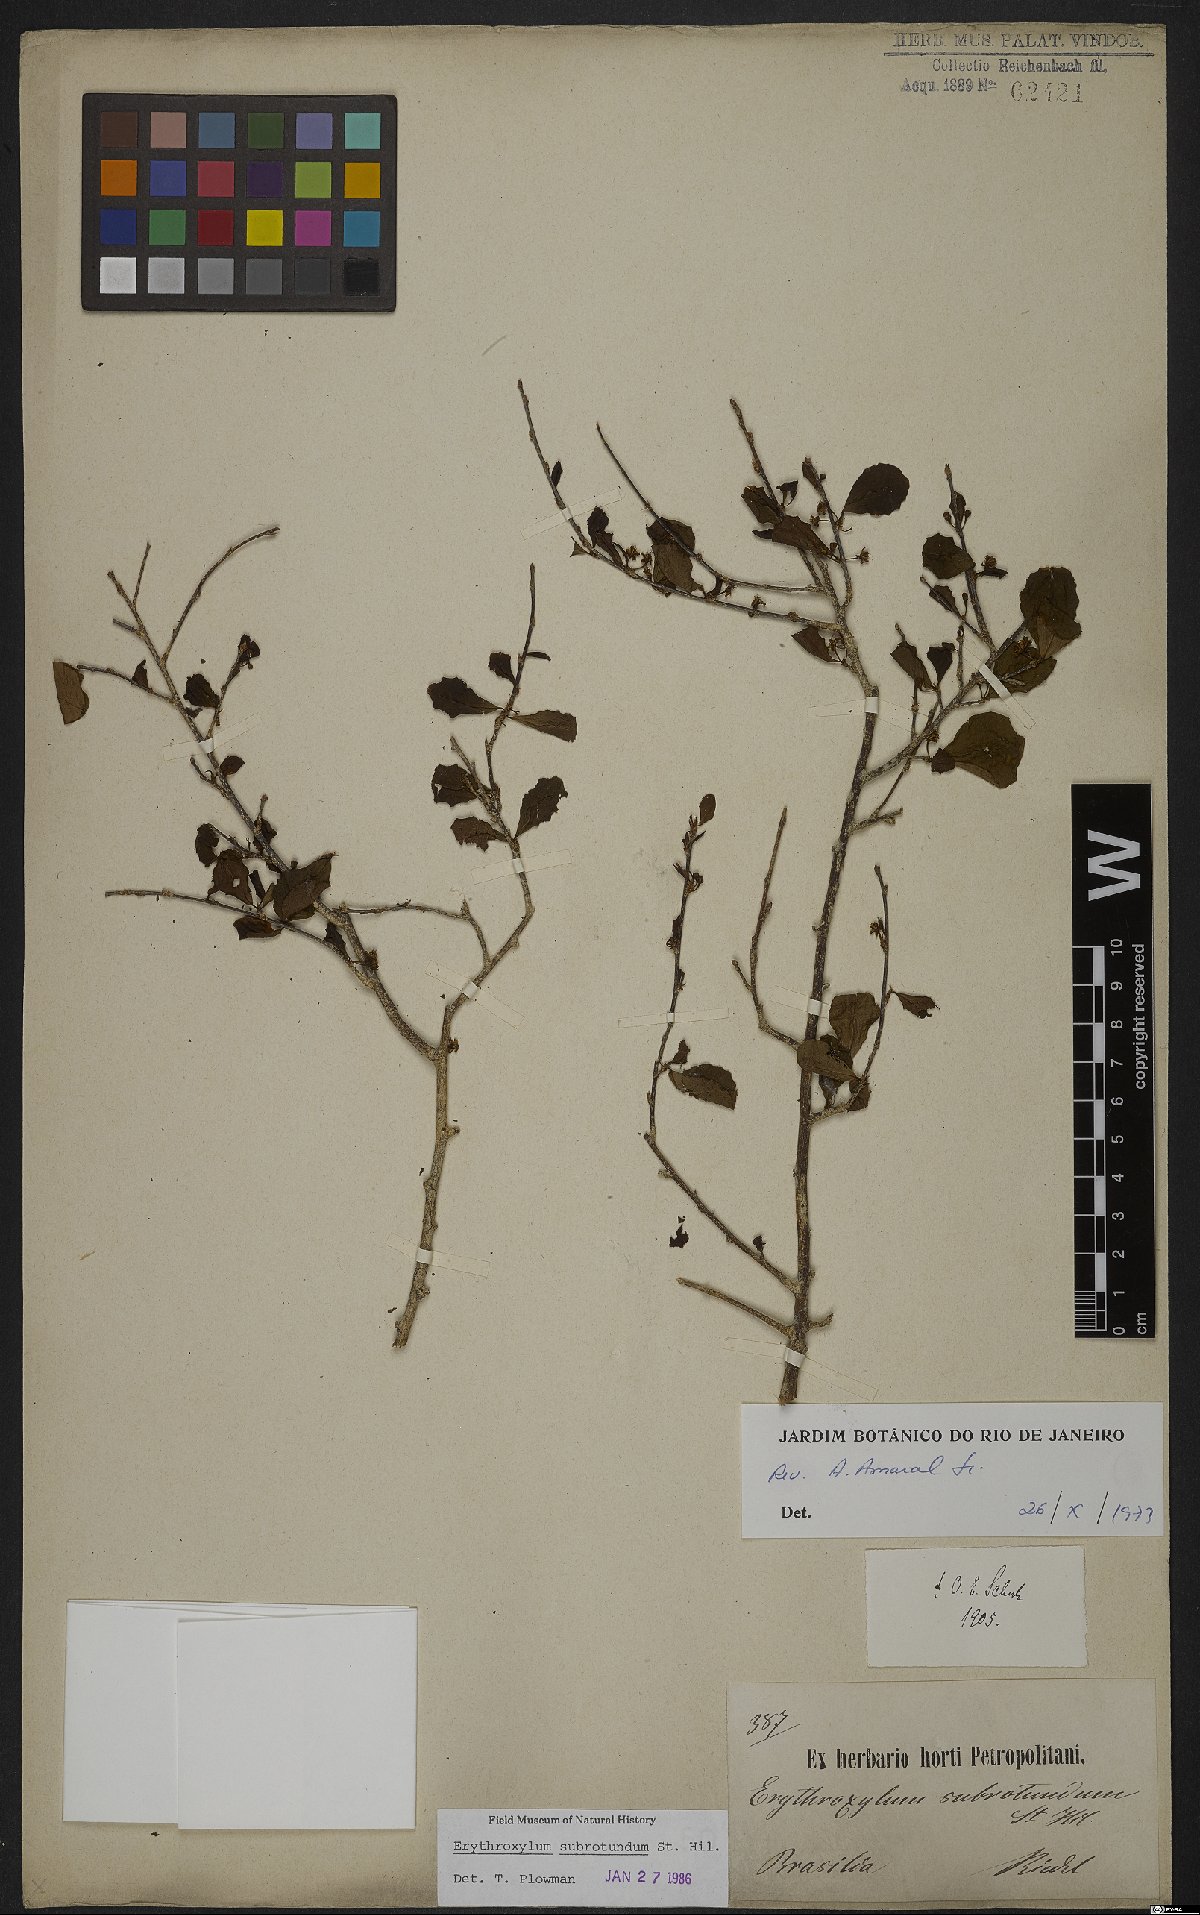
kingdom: Plantae
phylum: Tracheophyta
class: Magnoliopsida
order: Malpighiales
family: Erythroxylaceae
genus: Erythroxylum
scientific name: Erythroxylum subrotundum
